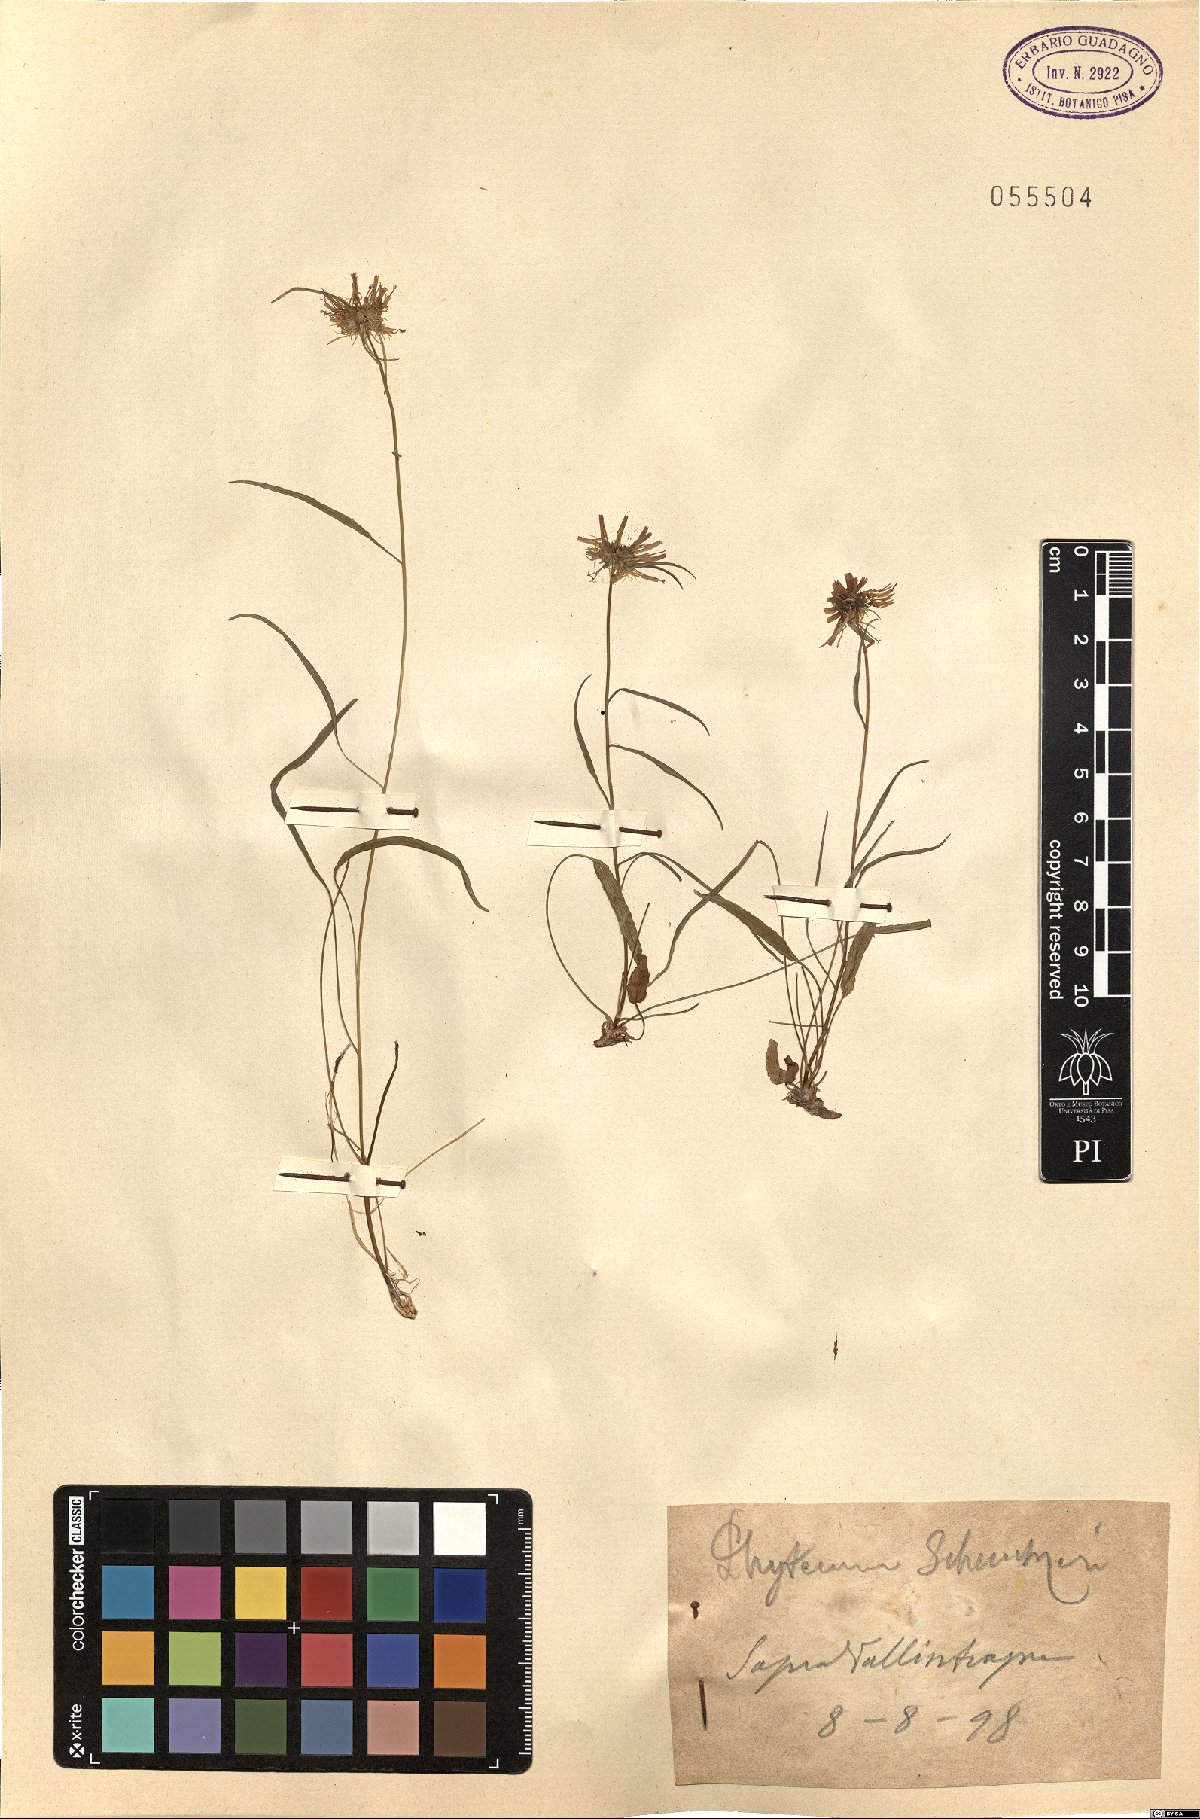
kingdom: Plantae
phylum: Tracheophyta
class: Magnoliopsida
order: Asterales
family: Campanulaceae
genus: Phyteuma
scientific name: Phyteuma scheuchzeri
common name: Oxford rampion
